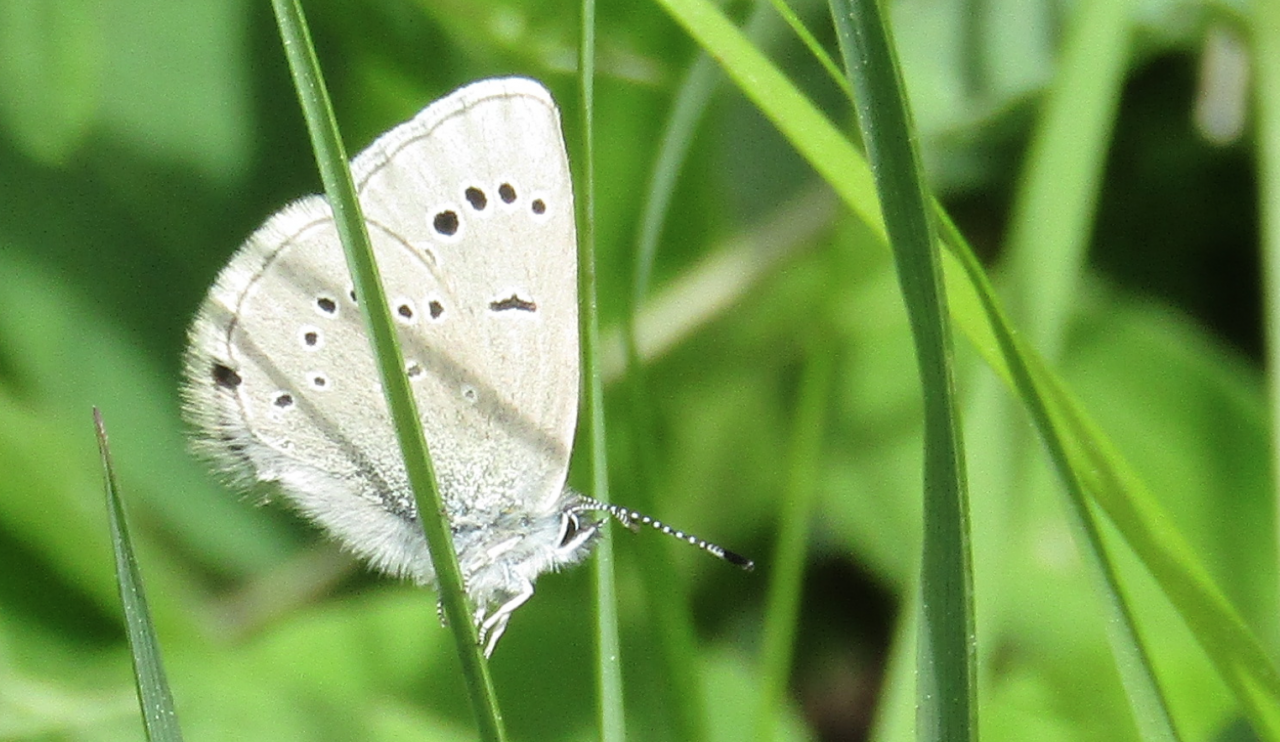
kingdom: Animalia
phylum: Arthropoda
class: Insecta
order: Lepidoptera
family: Lycaenidae
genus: Glaucopsyche
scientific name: Glaucopsyche lygdamus
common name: Silvery Blue
